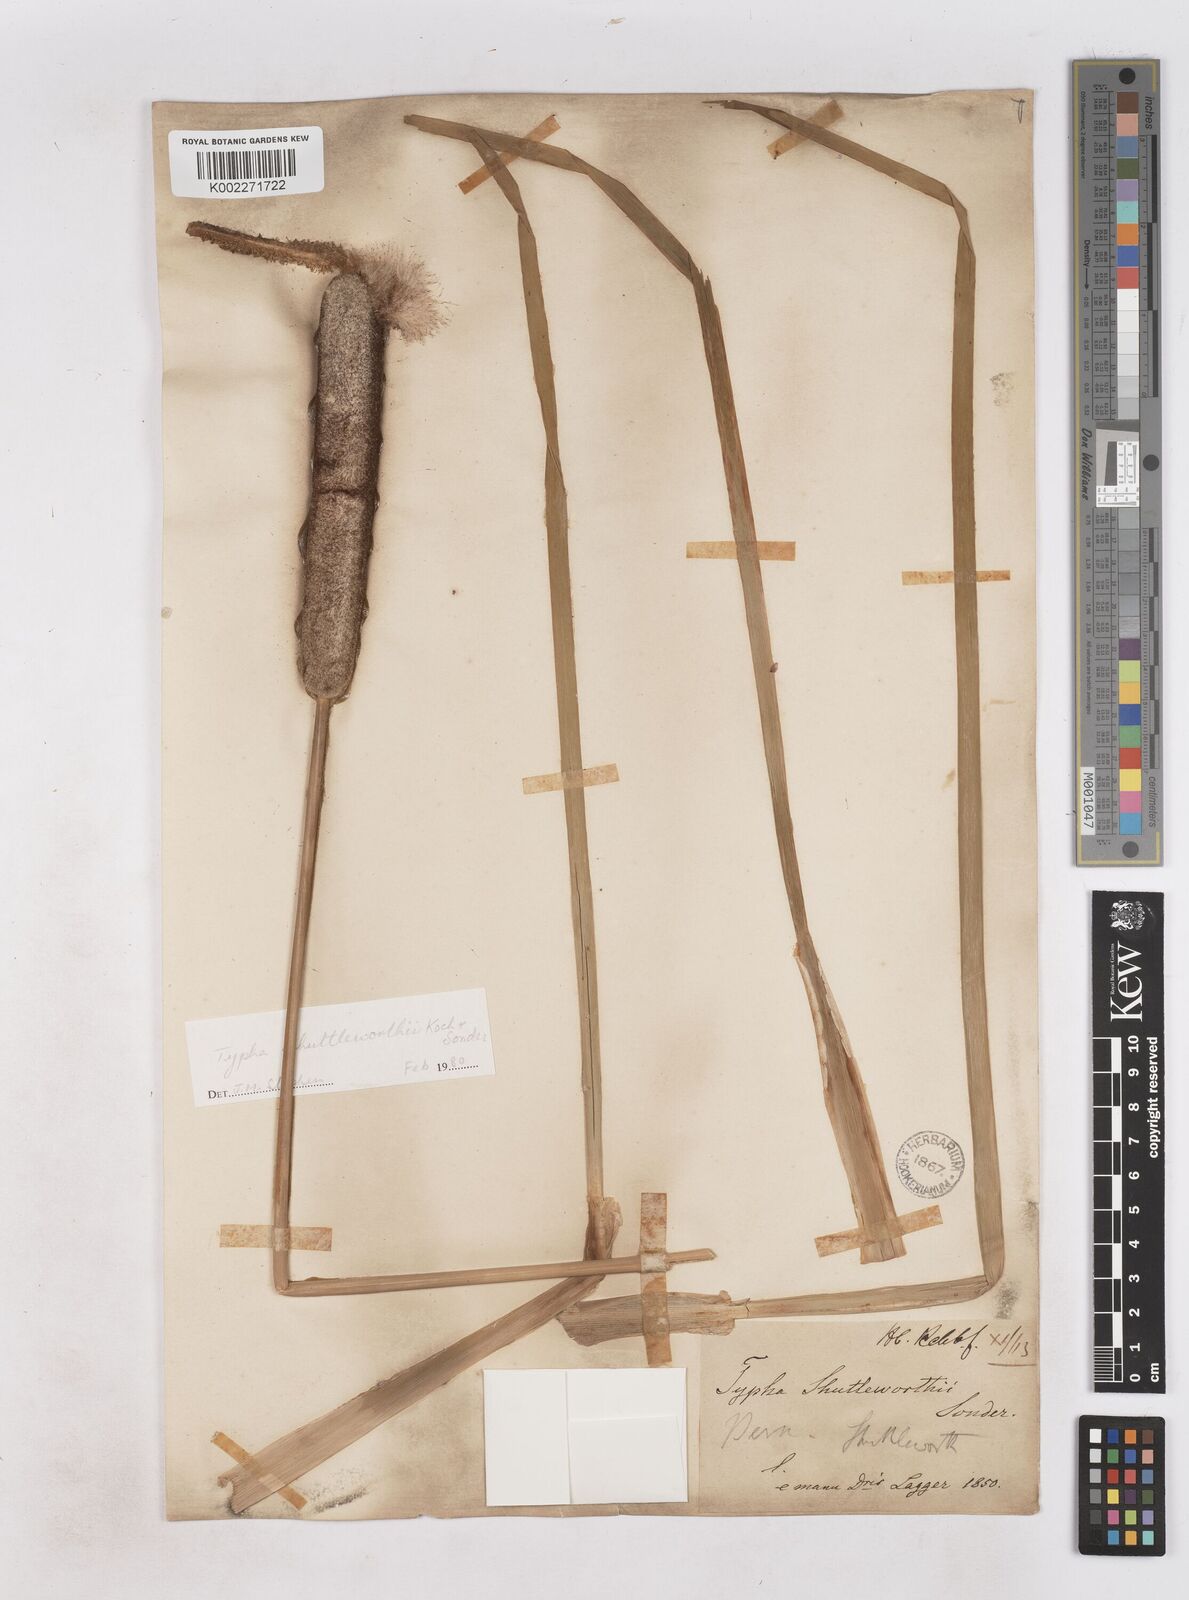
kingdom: Plantae
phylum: Tracheophyta
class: Liliopsida
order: Poales
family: Typhaceae
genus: Typha
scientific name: Typha shuttleworthii
